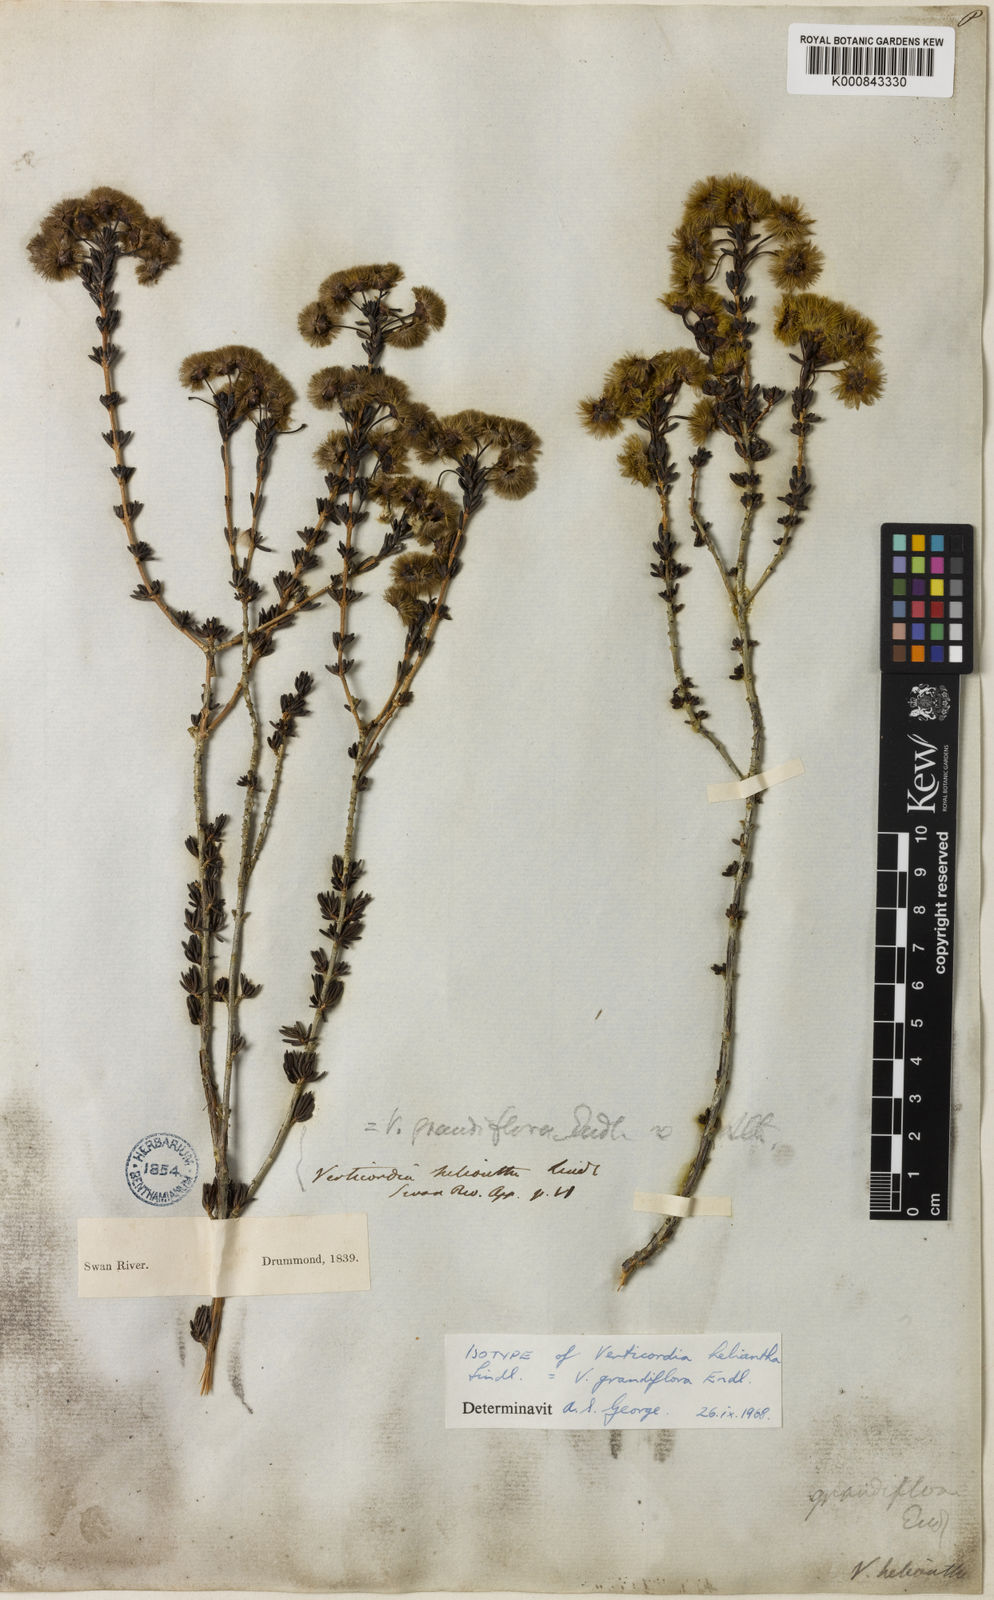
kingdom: Plantae
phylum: Tracheophyta
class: Magnoliopsida
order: Myrtales
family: Myrtaceae
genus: Verticordia
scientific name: Verticordia grandiflora
